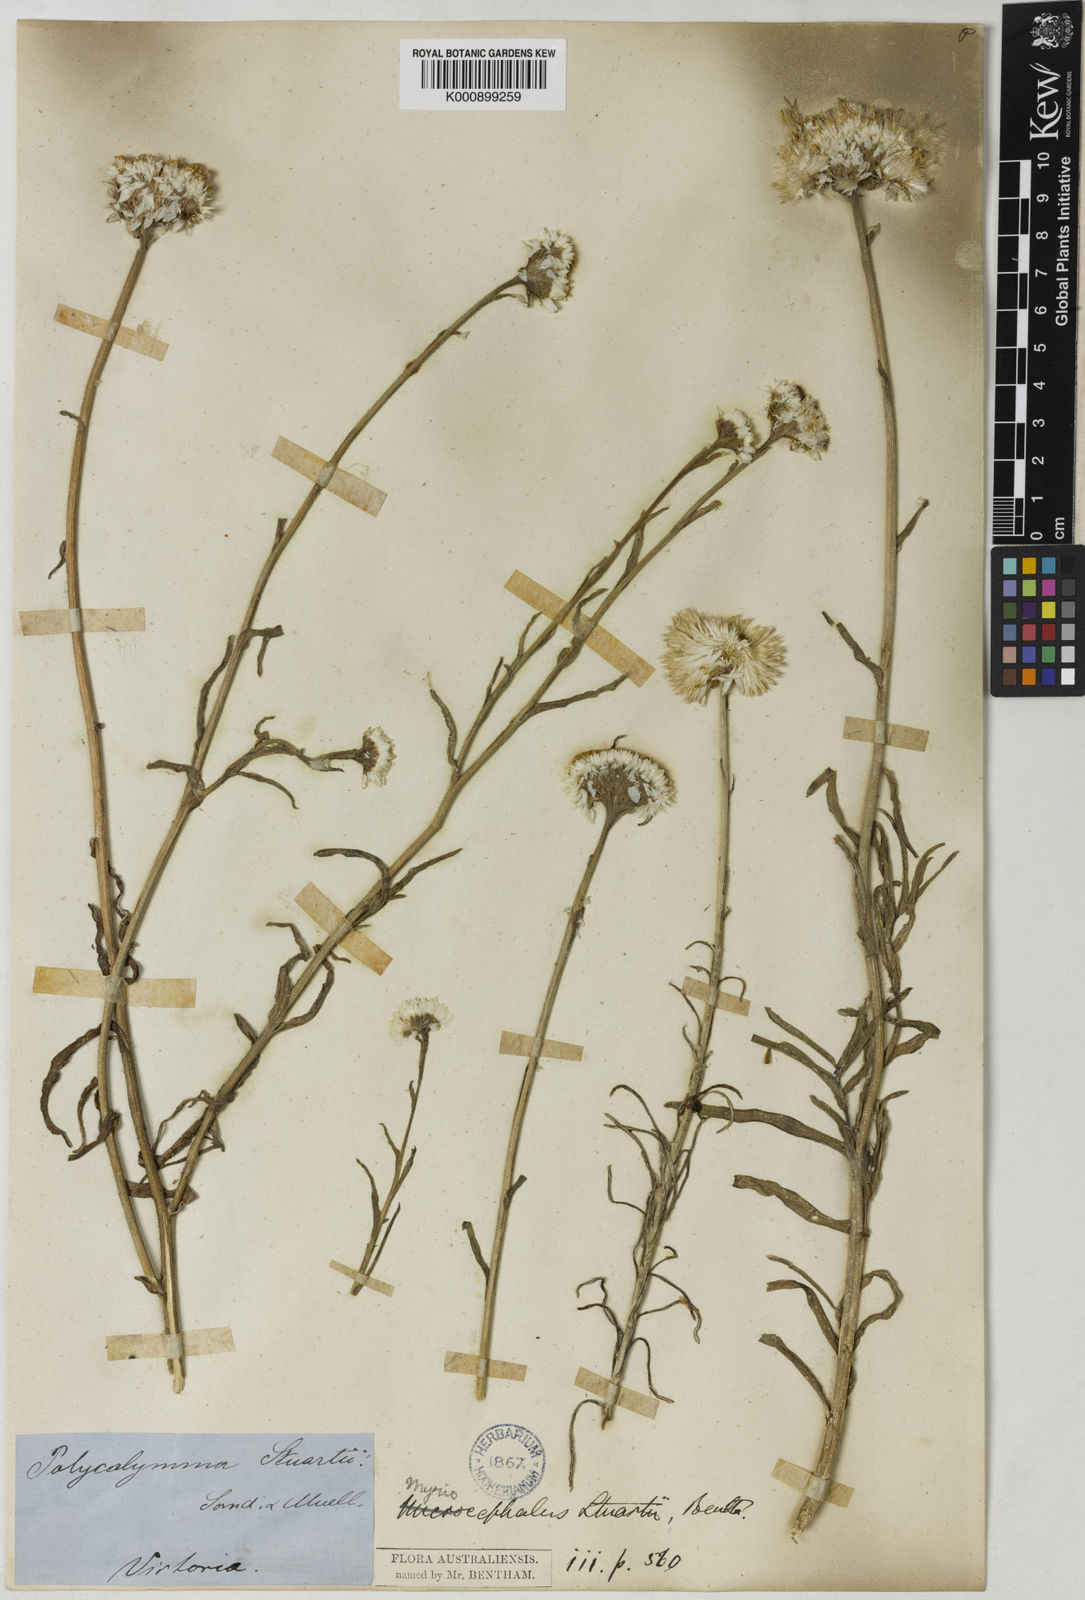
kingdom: Plantae
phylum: Tracheophyta
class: Magnoliopsida
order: Asterales
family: Asteraceae
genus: Polycalymma
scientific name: Polycalymma stuartii
